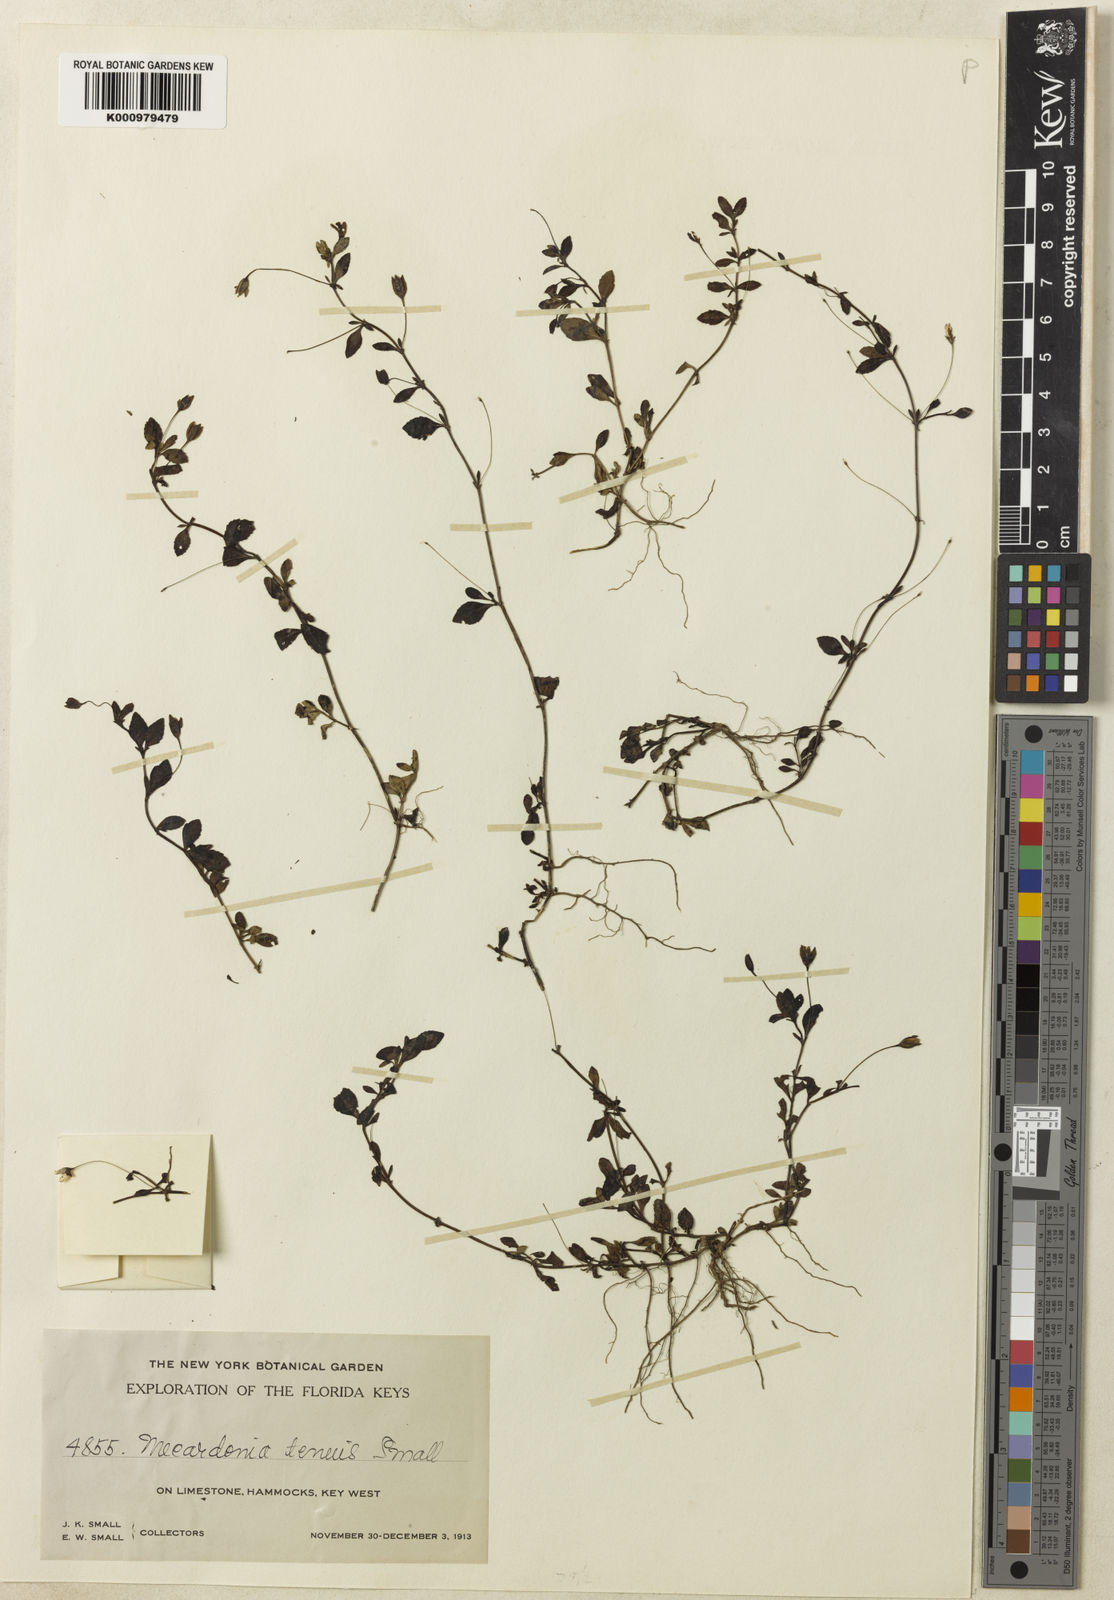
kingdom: Plantae
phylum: Tracheophyta
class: Magnoliopsida
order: Lamiales
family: Plantaginaceae
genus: Mecardonia
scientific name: Mecardonia procumbens
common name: Baby jump-up
